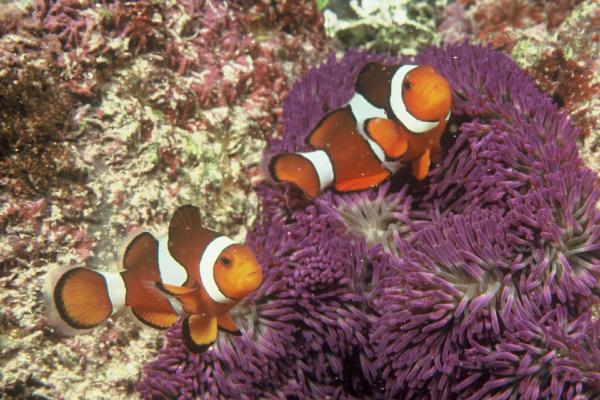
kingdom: Animalia
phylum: Chordata
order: Perciformes
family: Pomacentridae
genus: Amphiprion
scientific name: Amphiprion ocellaris
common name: Clown anemonefish
